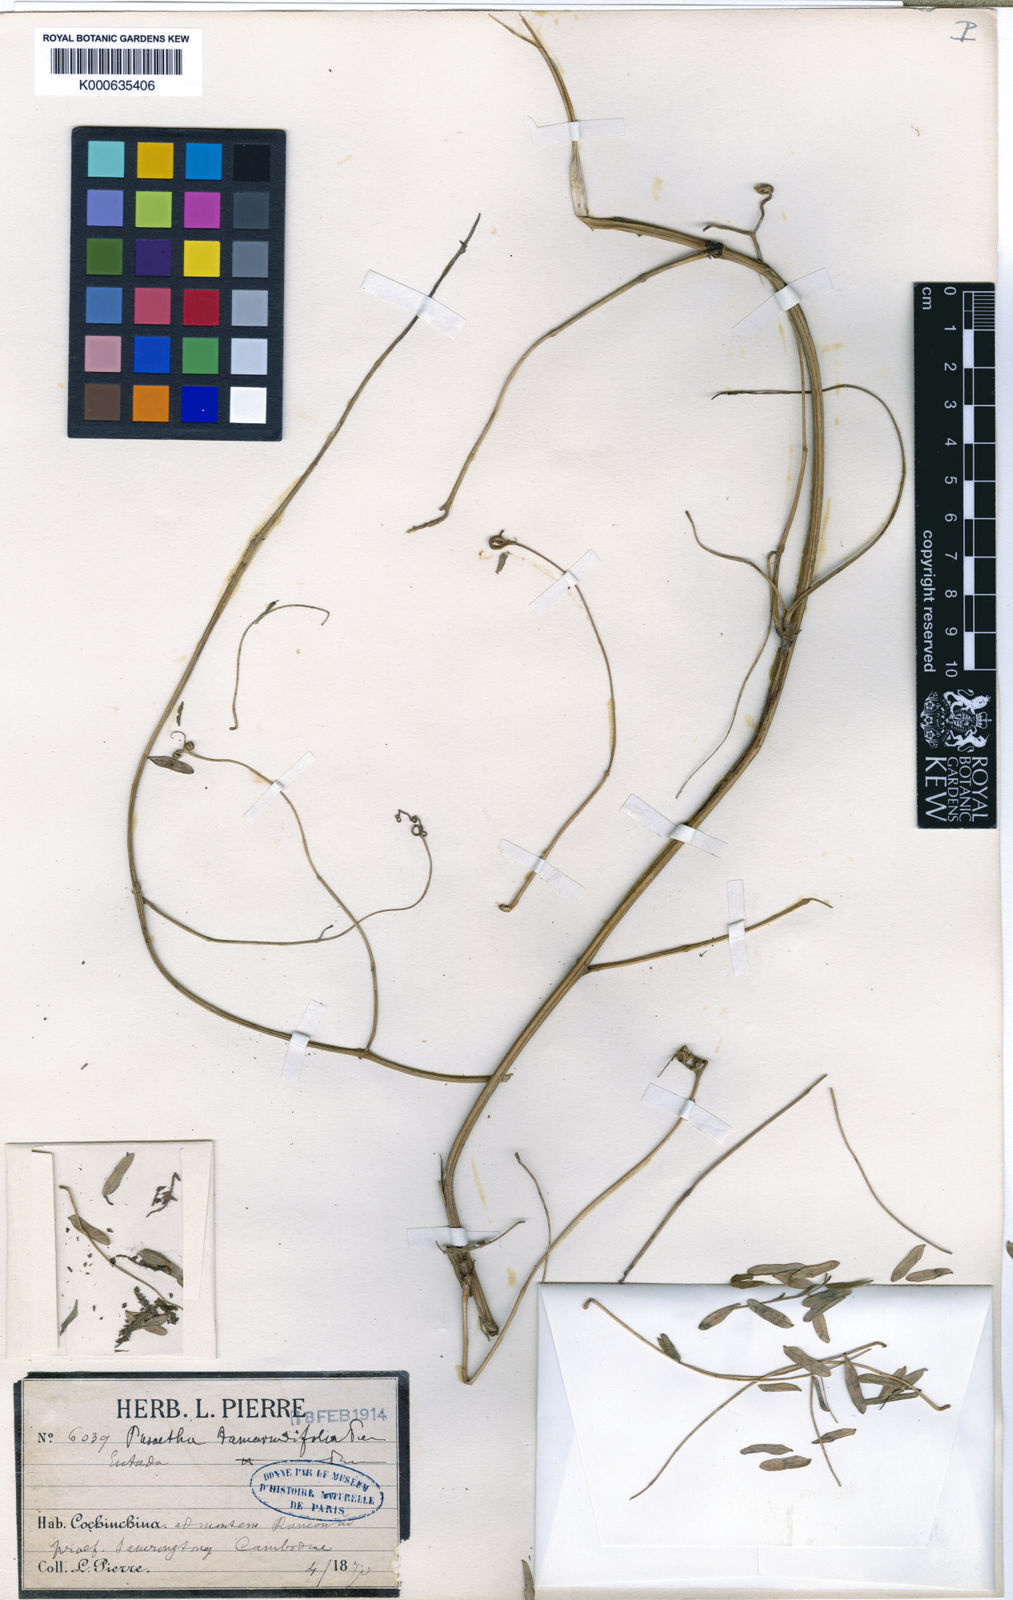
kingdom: Plantae
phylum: Tracheophyta
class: Magnoliopsida
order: Fabales
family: Fabaceae
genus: Entada
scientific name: Entada reticulata
